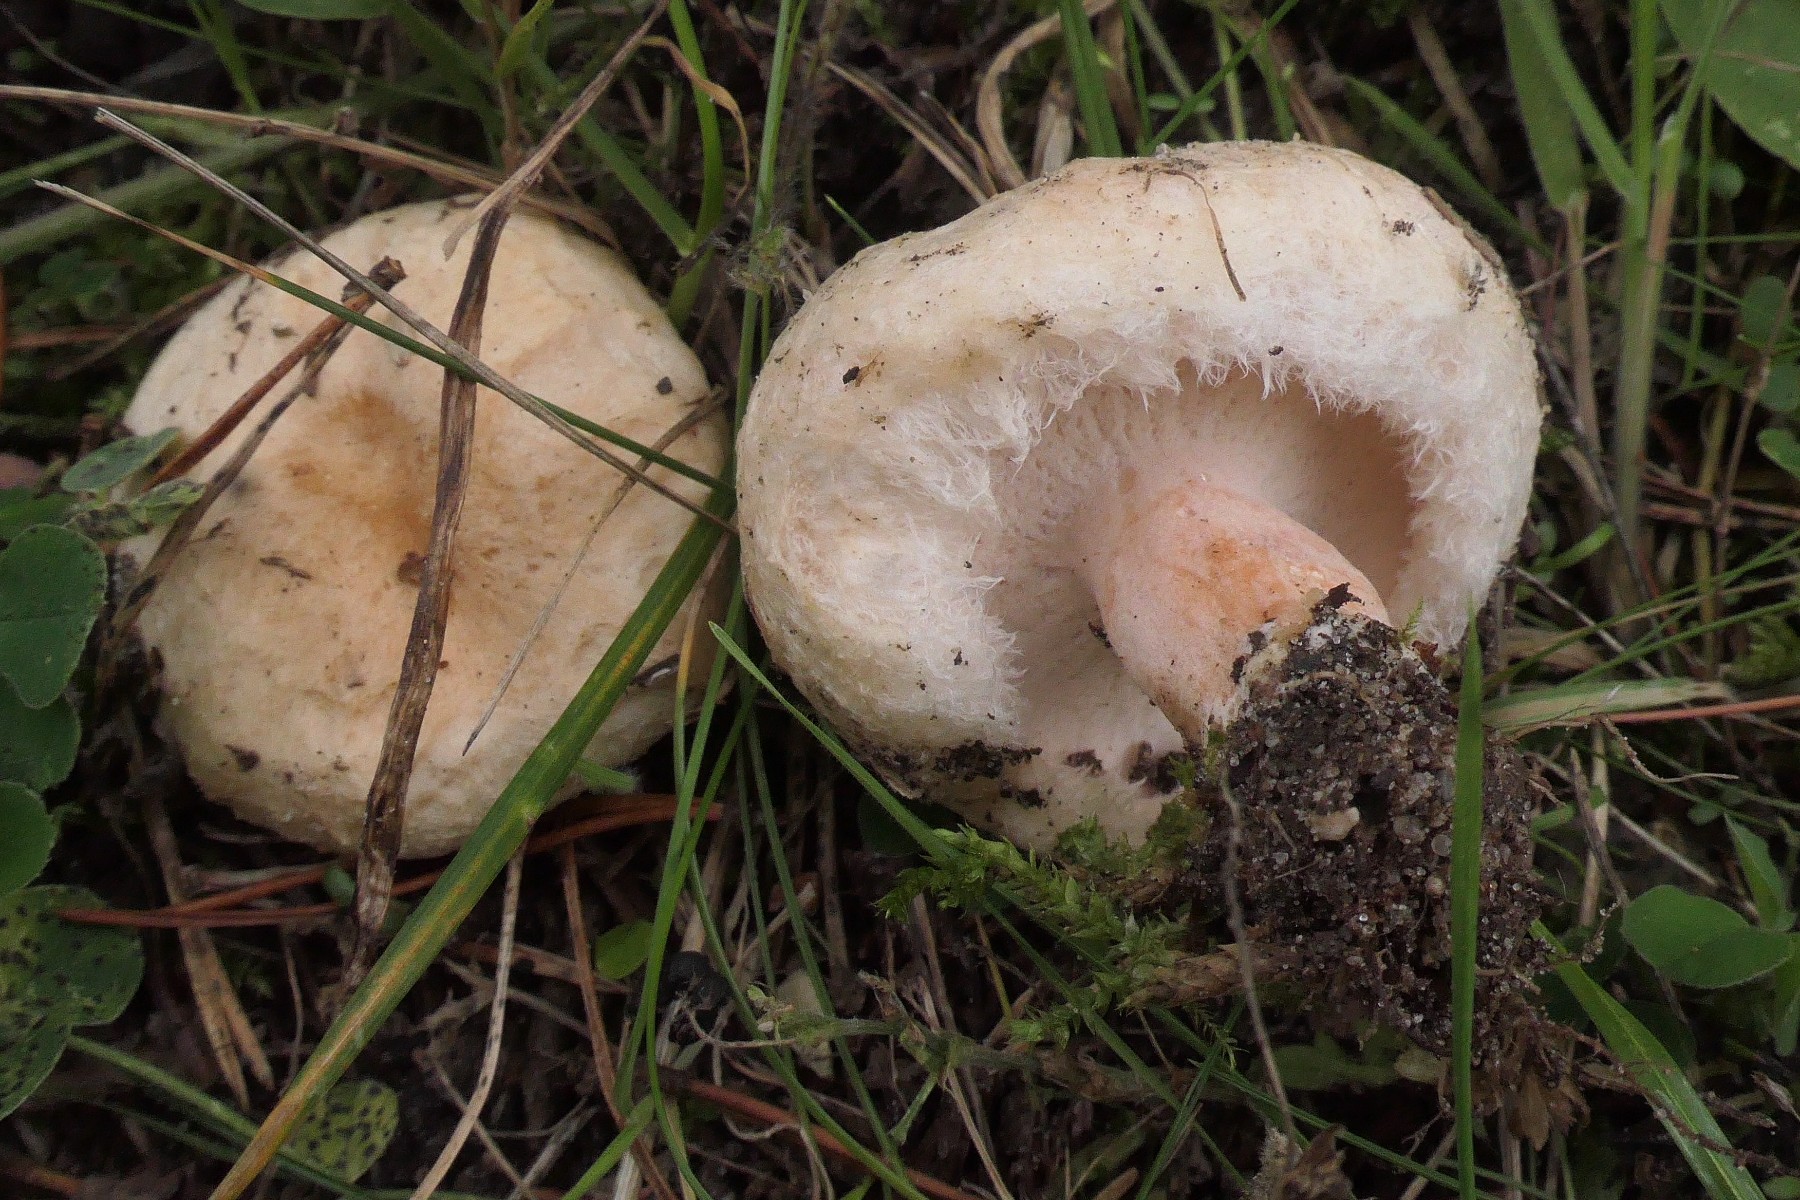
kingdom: Fungi
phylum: Basidiomycota
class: Agaricomycetes
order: Russulales
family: Russulaceae
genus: Lactarius
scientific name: Lactarius torminosus
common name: skægget mælkehat
